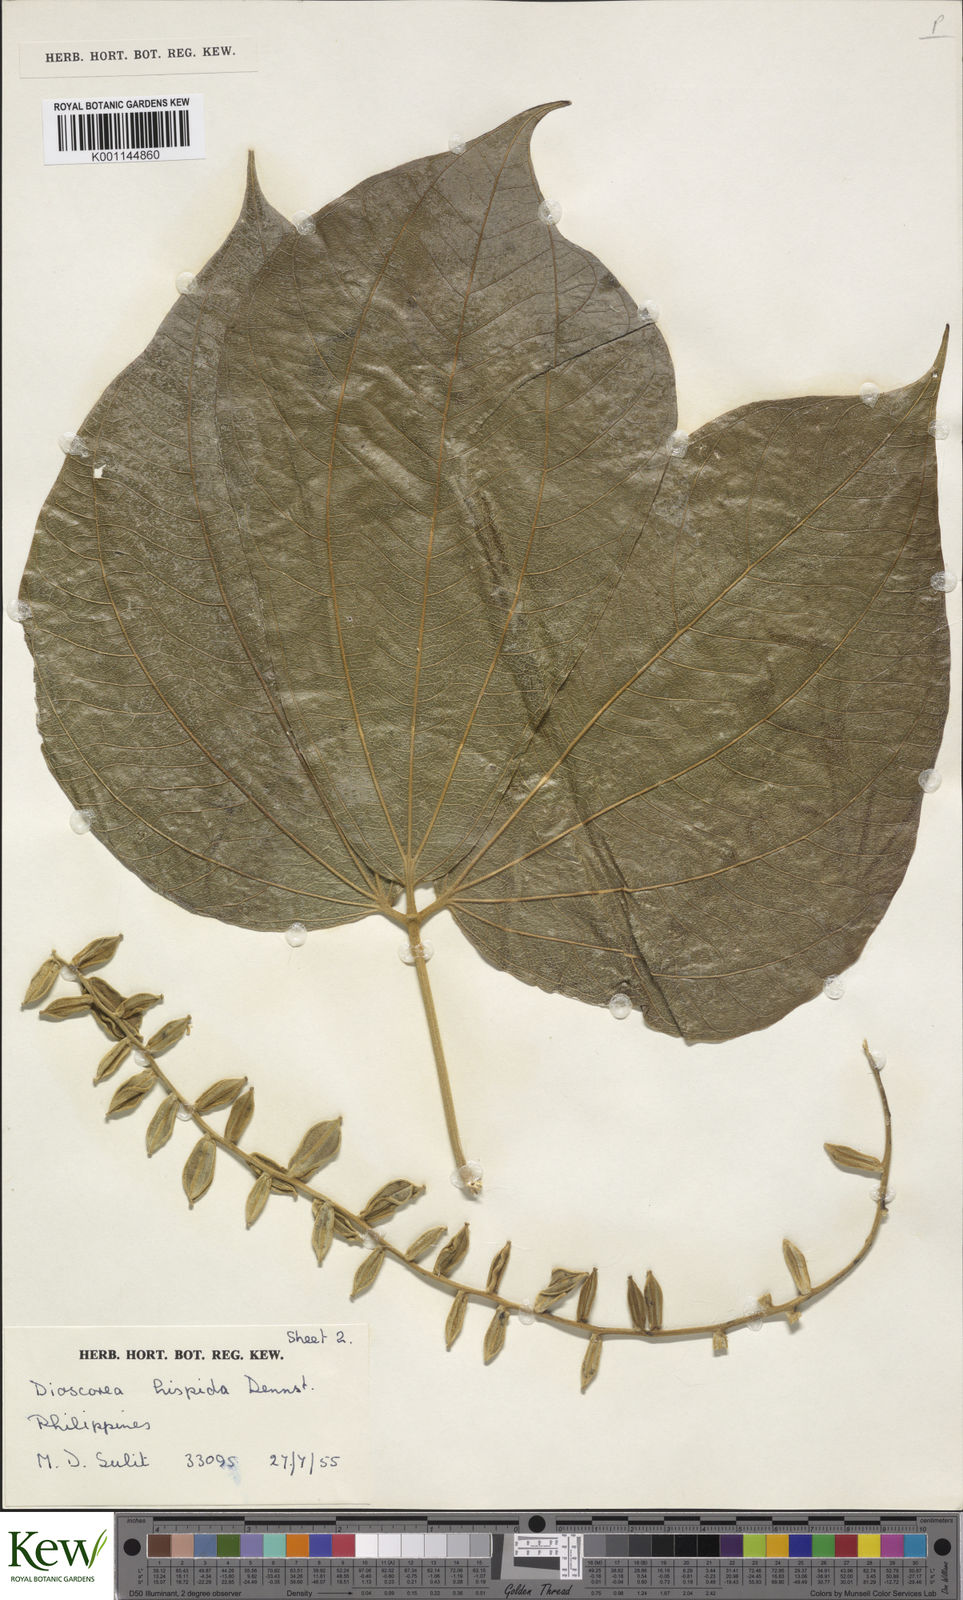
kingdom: Plantae
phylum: Tracheophyta
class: Liliopsida
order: Dioscoreales
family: Dioscoreaceae
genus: Dioscorea
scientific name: Dioscorea hispida
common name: Asiatic bitter yam
